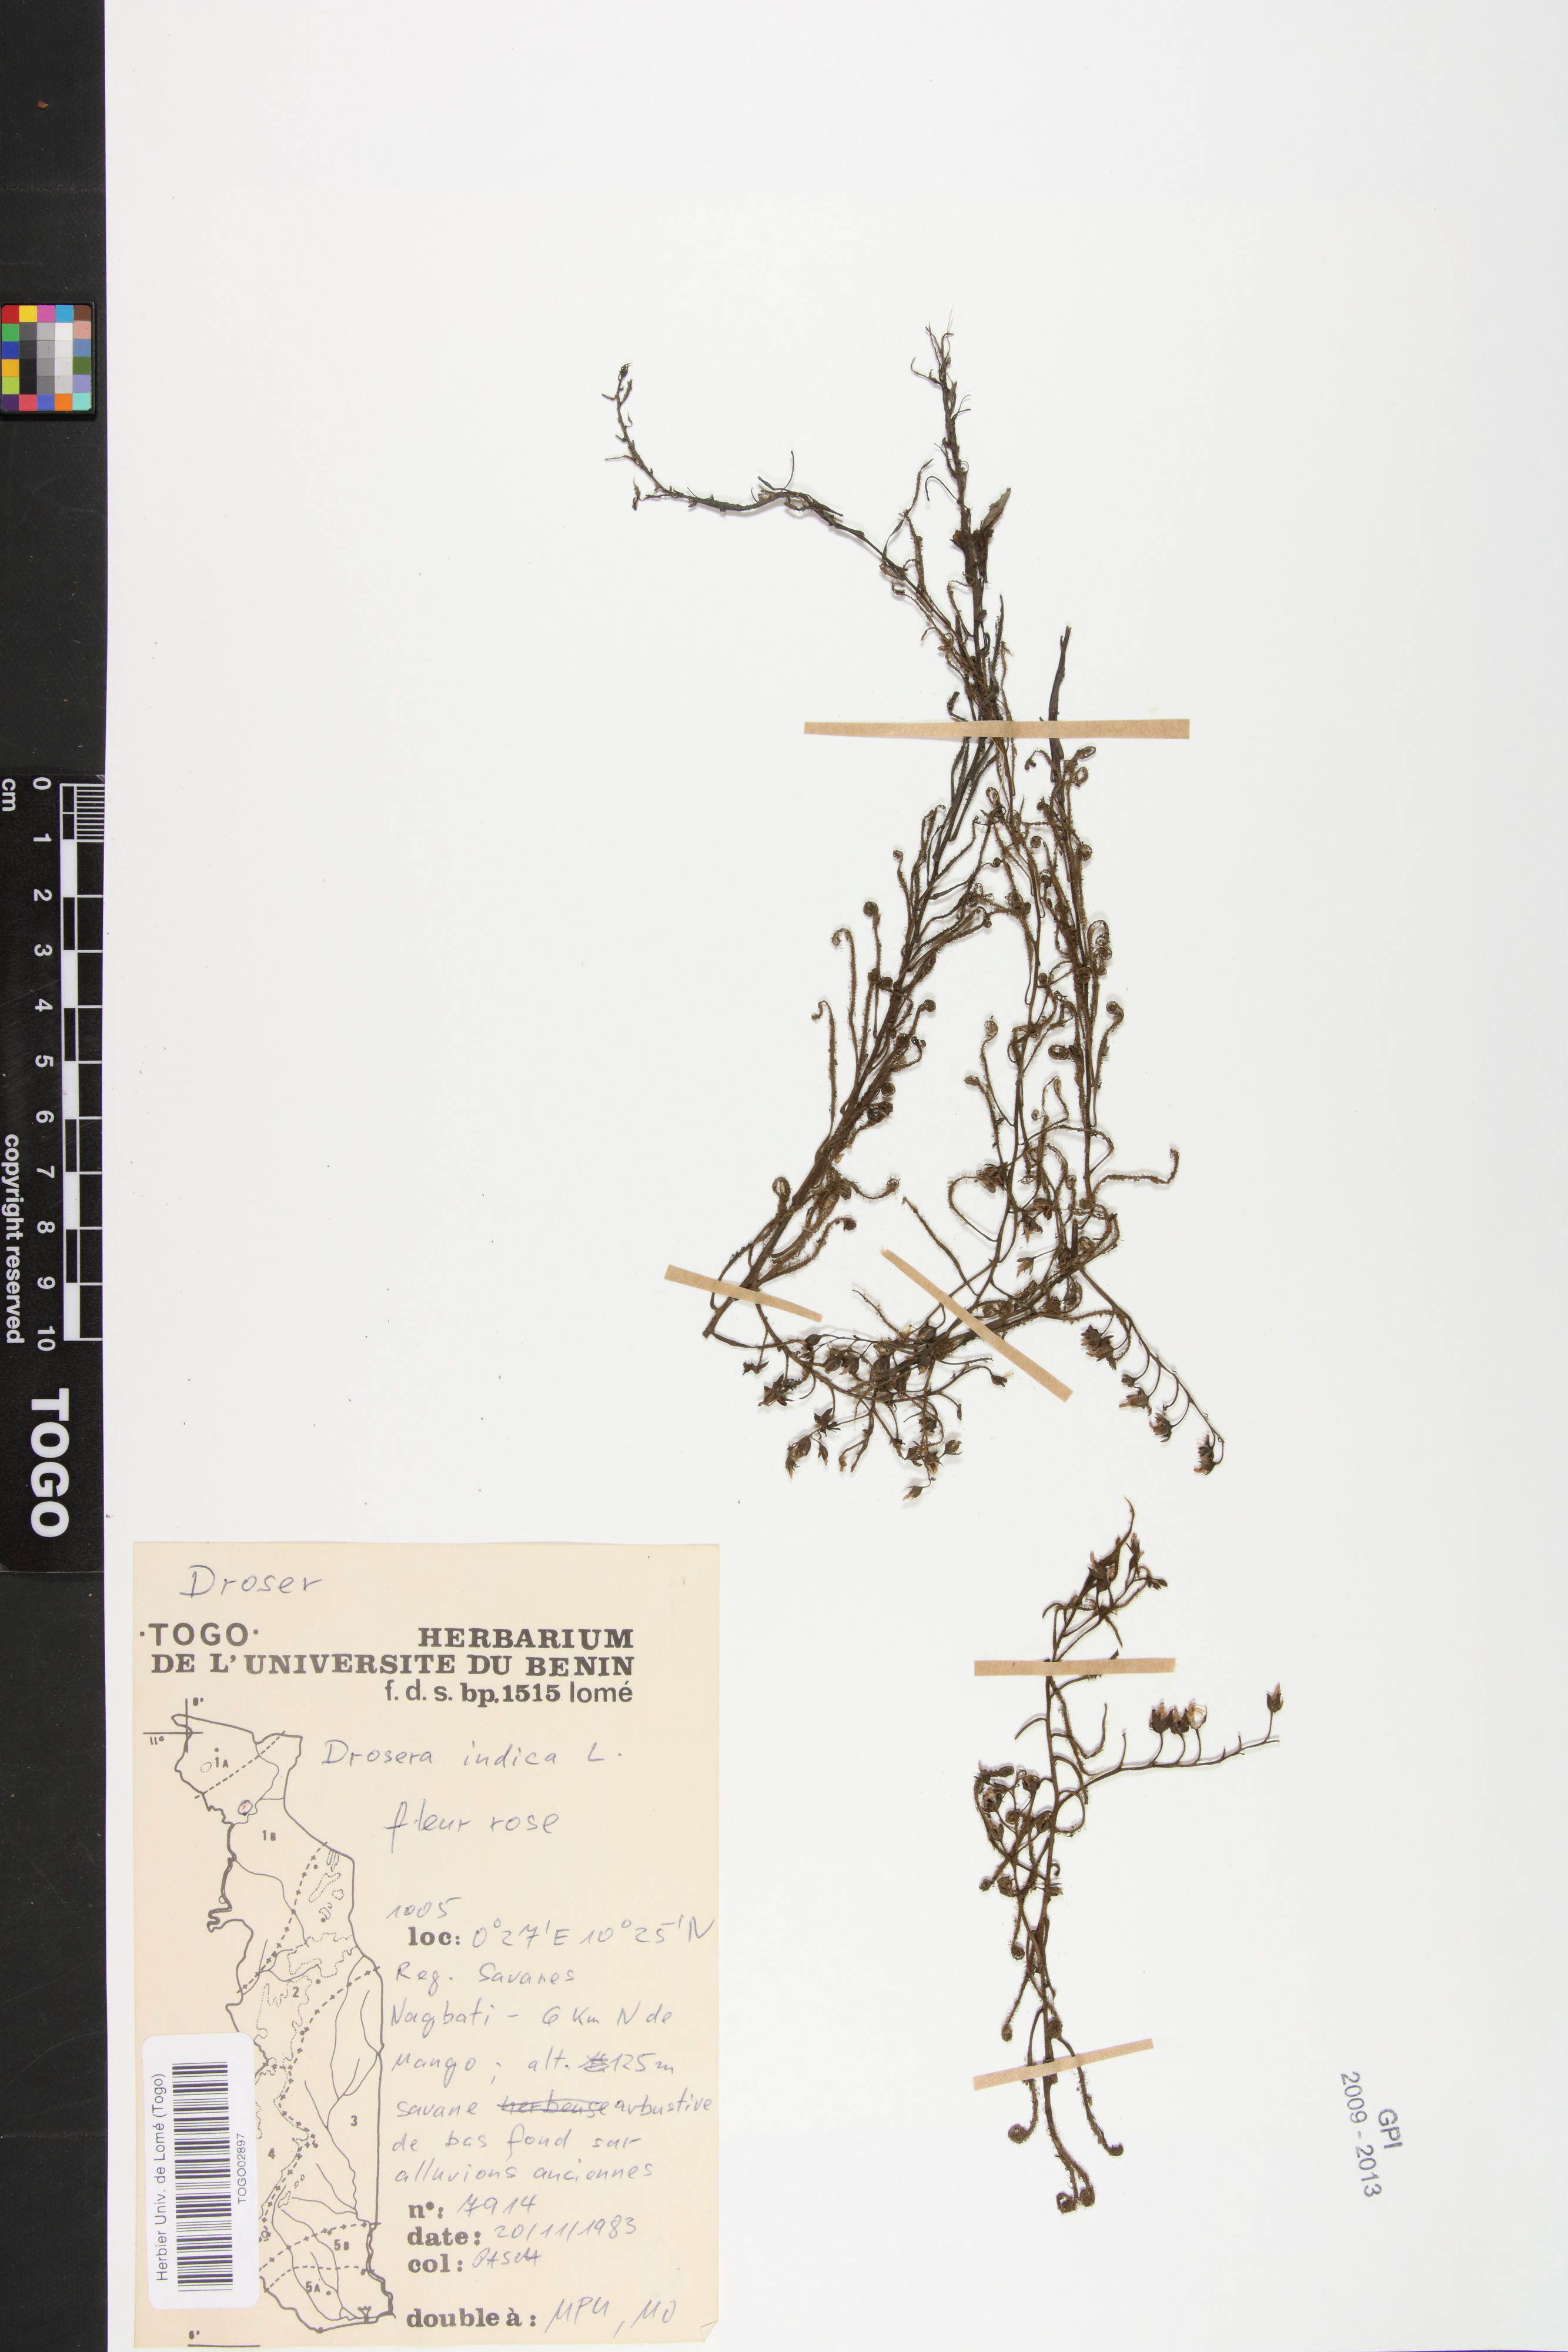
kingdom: Plantae
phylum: Tracheophyta
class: Magnoliopsida
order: Caryophyllales
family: Droseraceae
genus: Drosera
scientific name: Drosera indica
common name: Indian sundew
